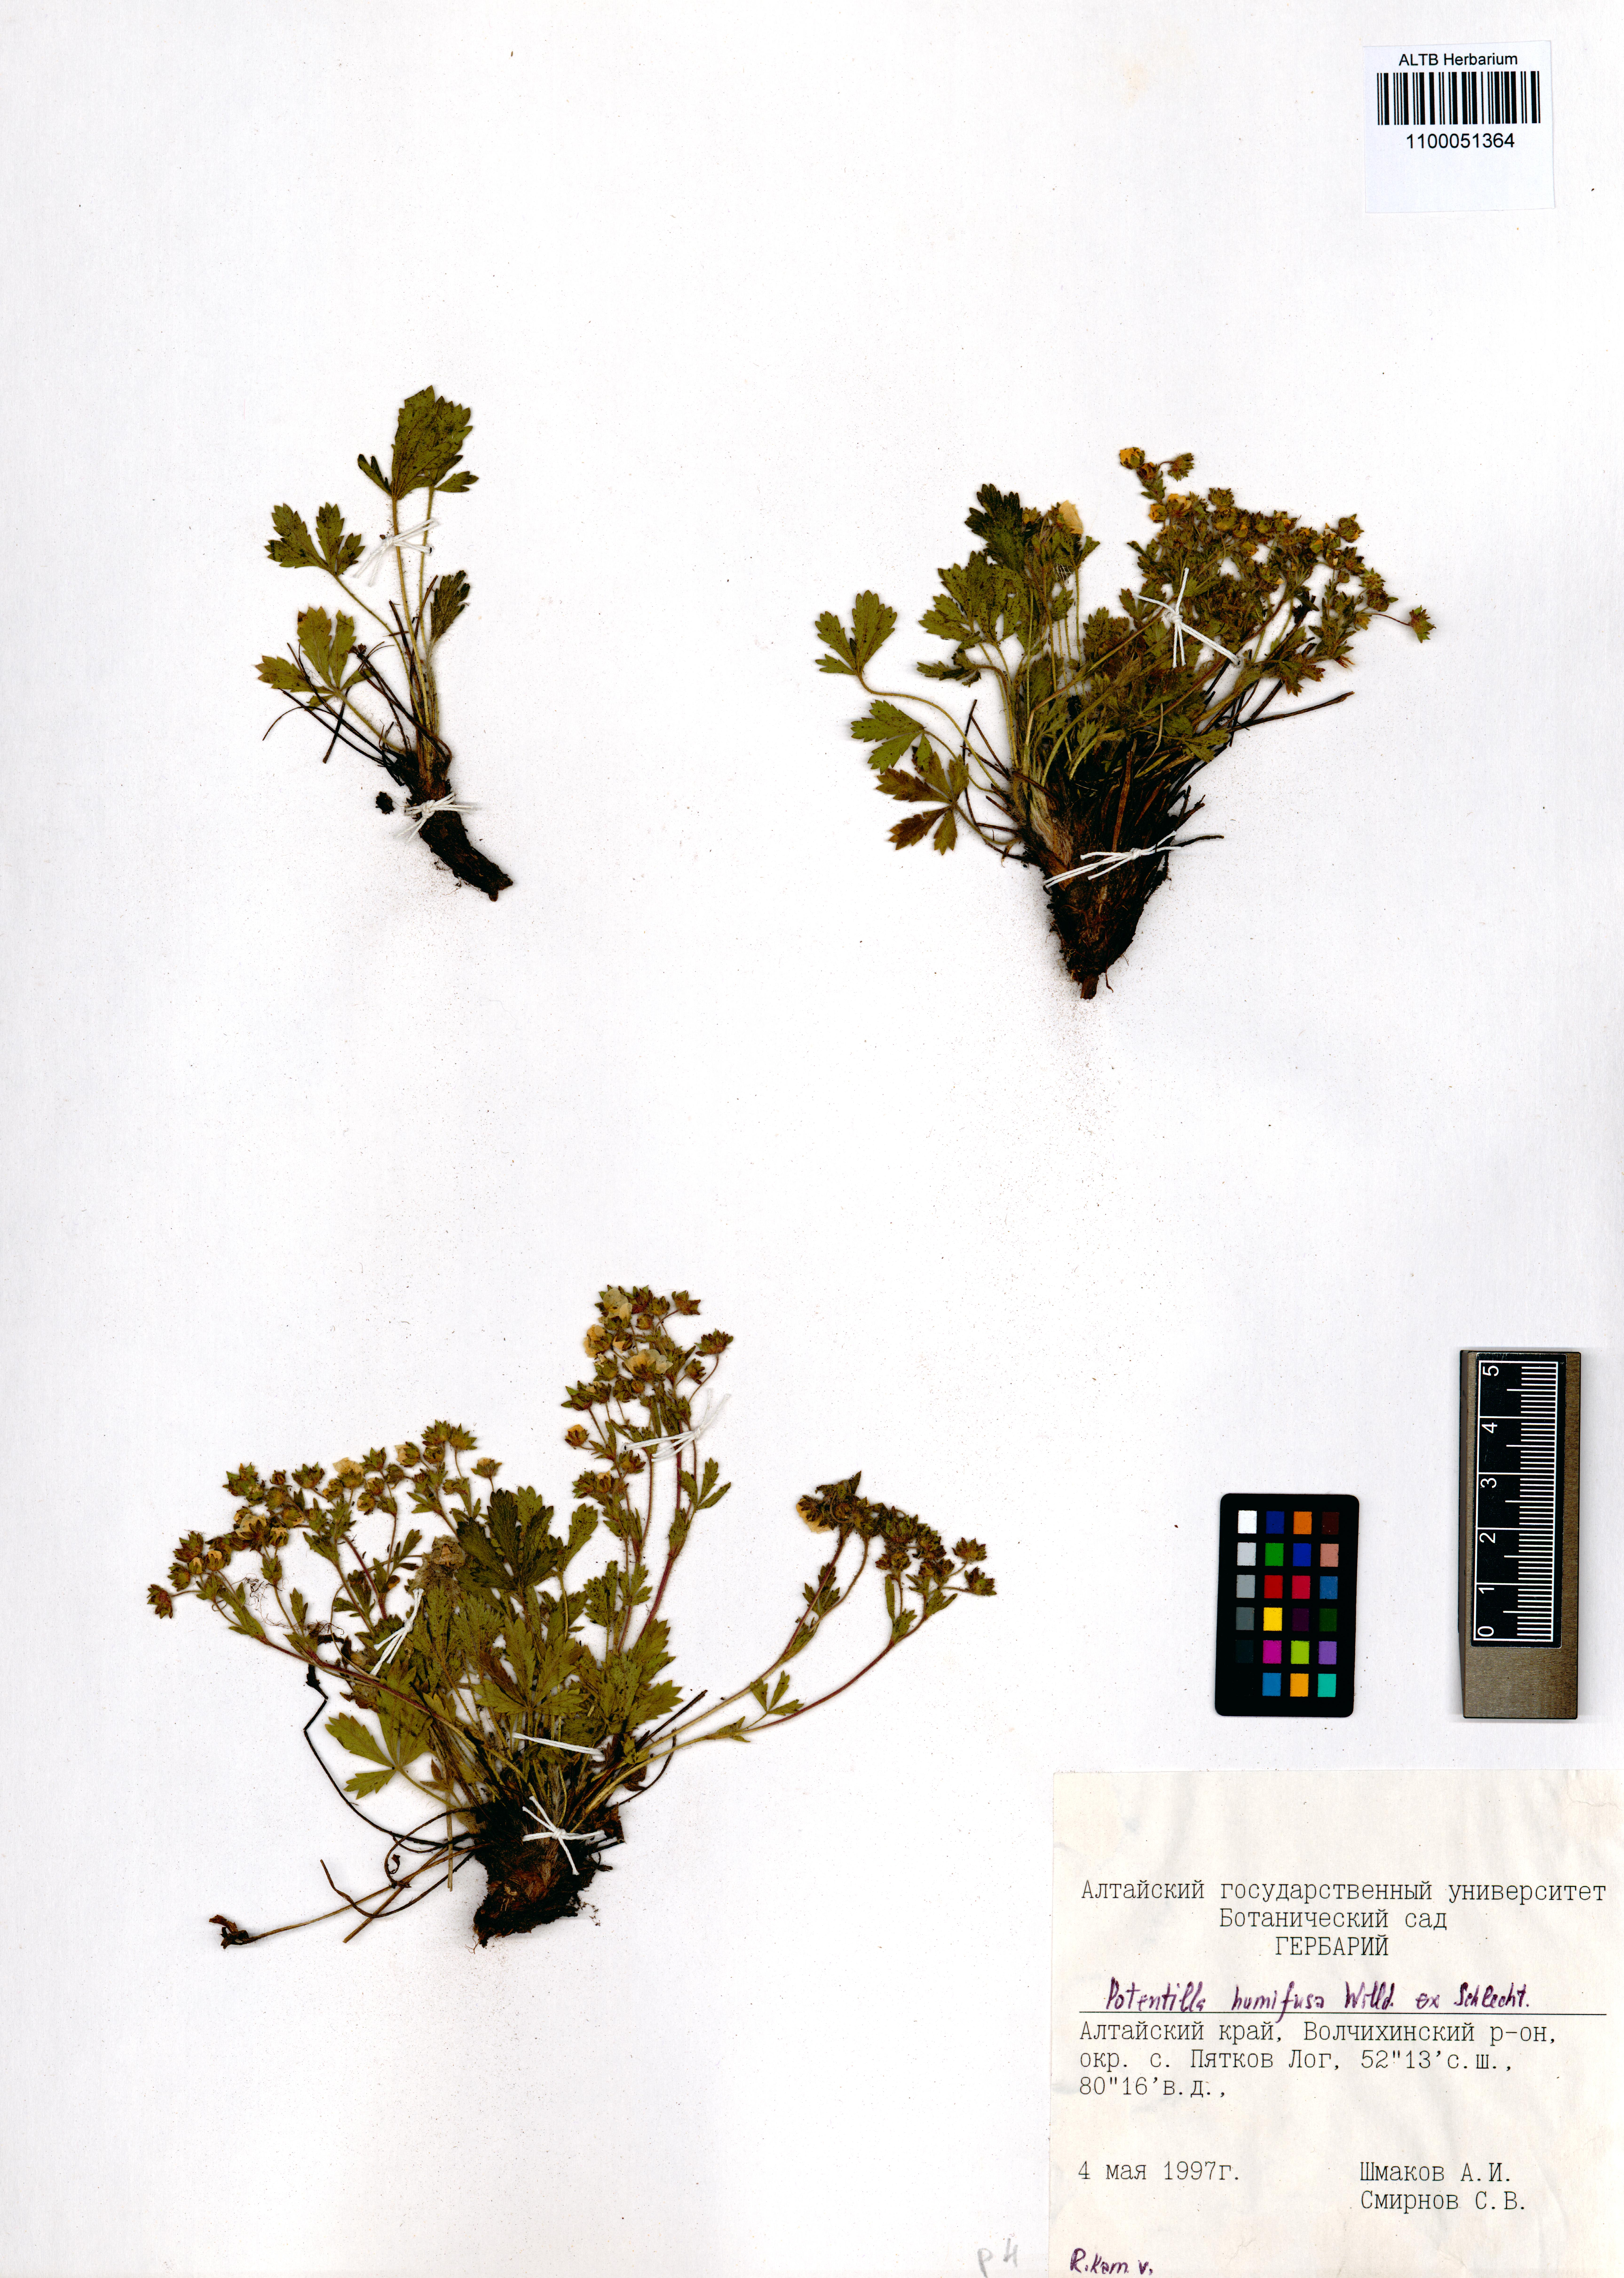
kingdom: Plantae
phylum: Tracheophyta
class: Magnoliopsida
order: Rosales
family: Rosaceae
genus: Potentilla
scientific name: Potentilla humifusa
